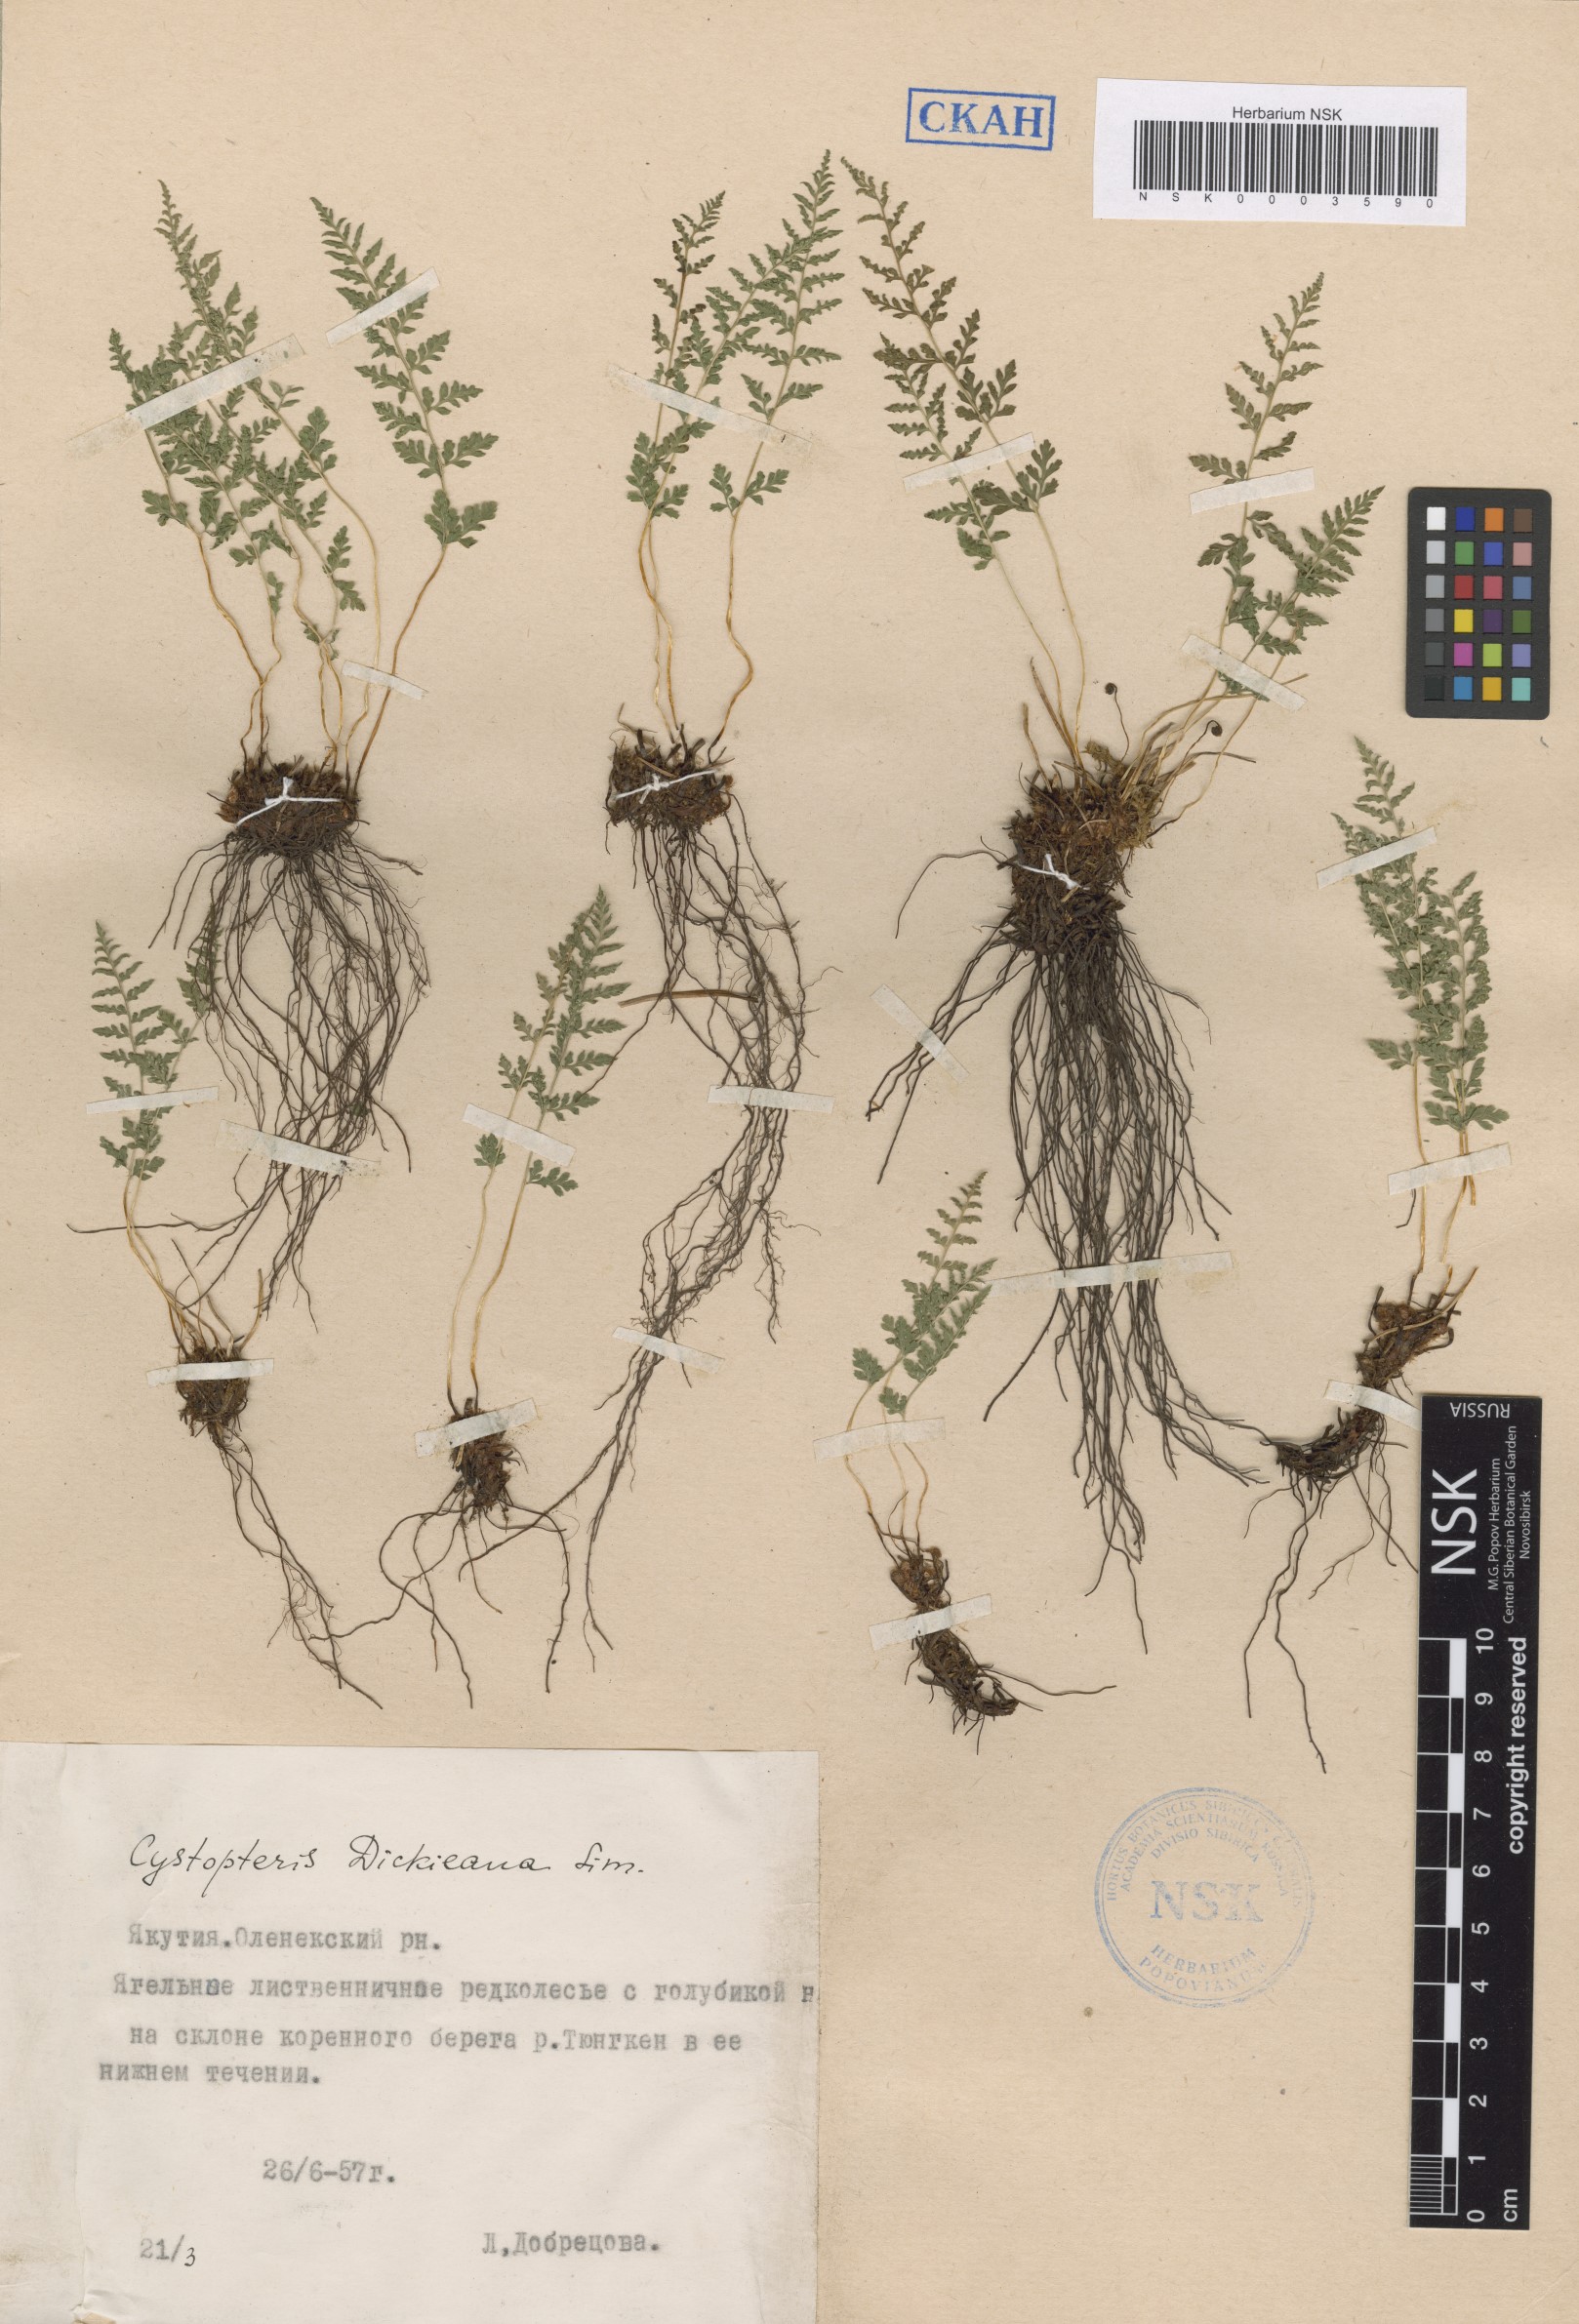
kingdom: Plantae
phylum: Tracheophyta
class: Polypodiopsida
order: Polypodiales
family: Cystopteridaceae
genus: Cystopteris
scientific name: Cystopteris dickieana
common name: Dickie's bladder-fern
